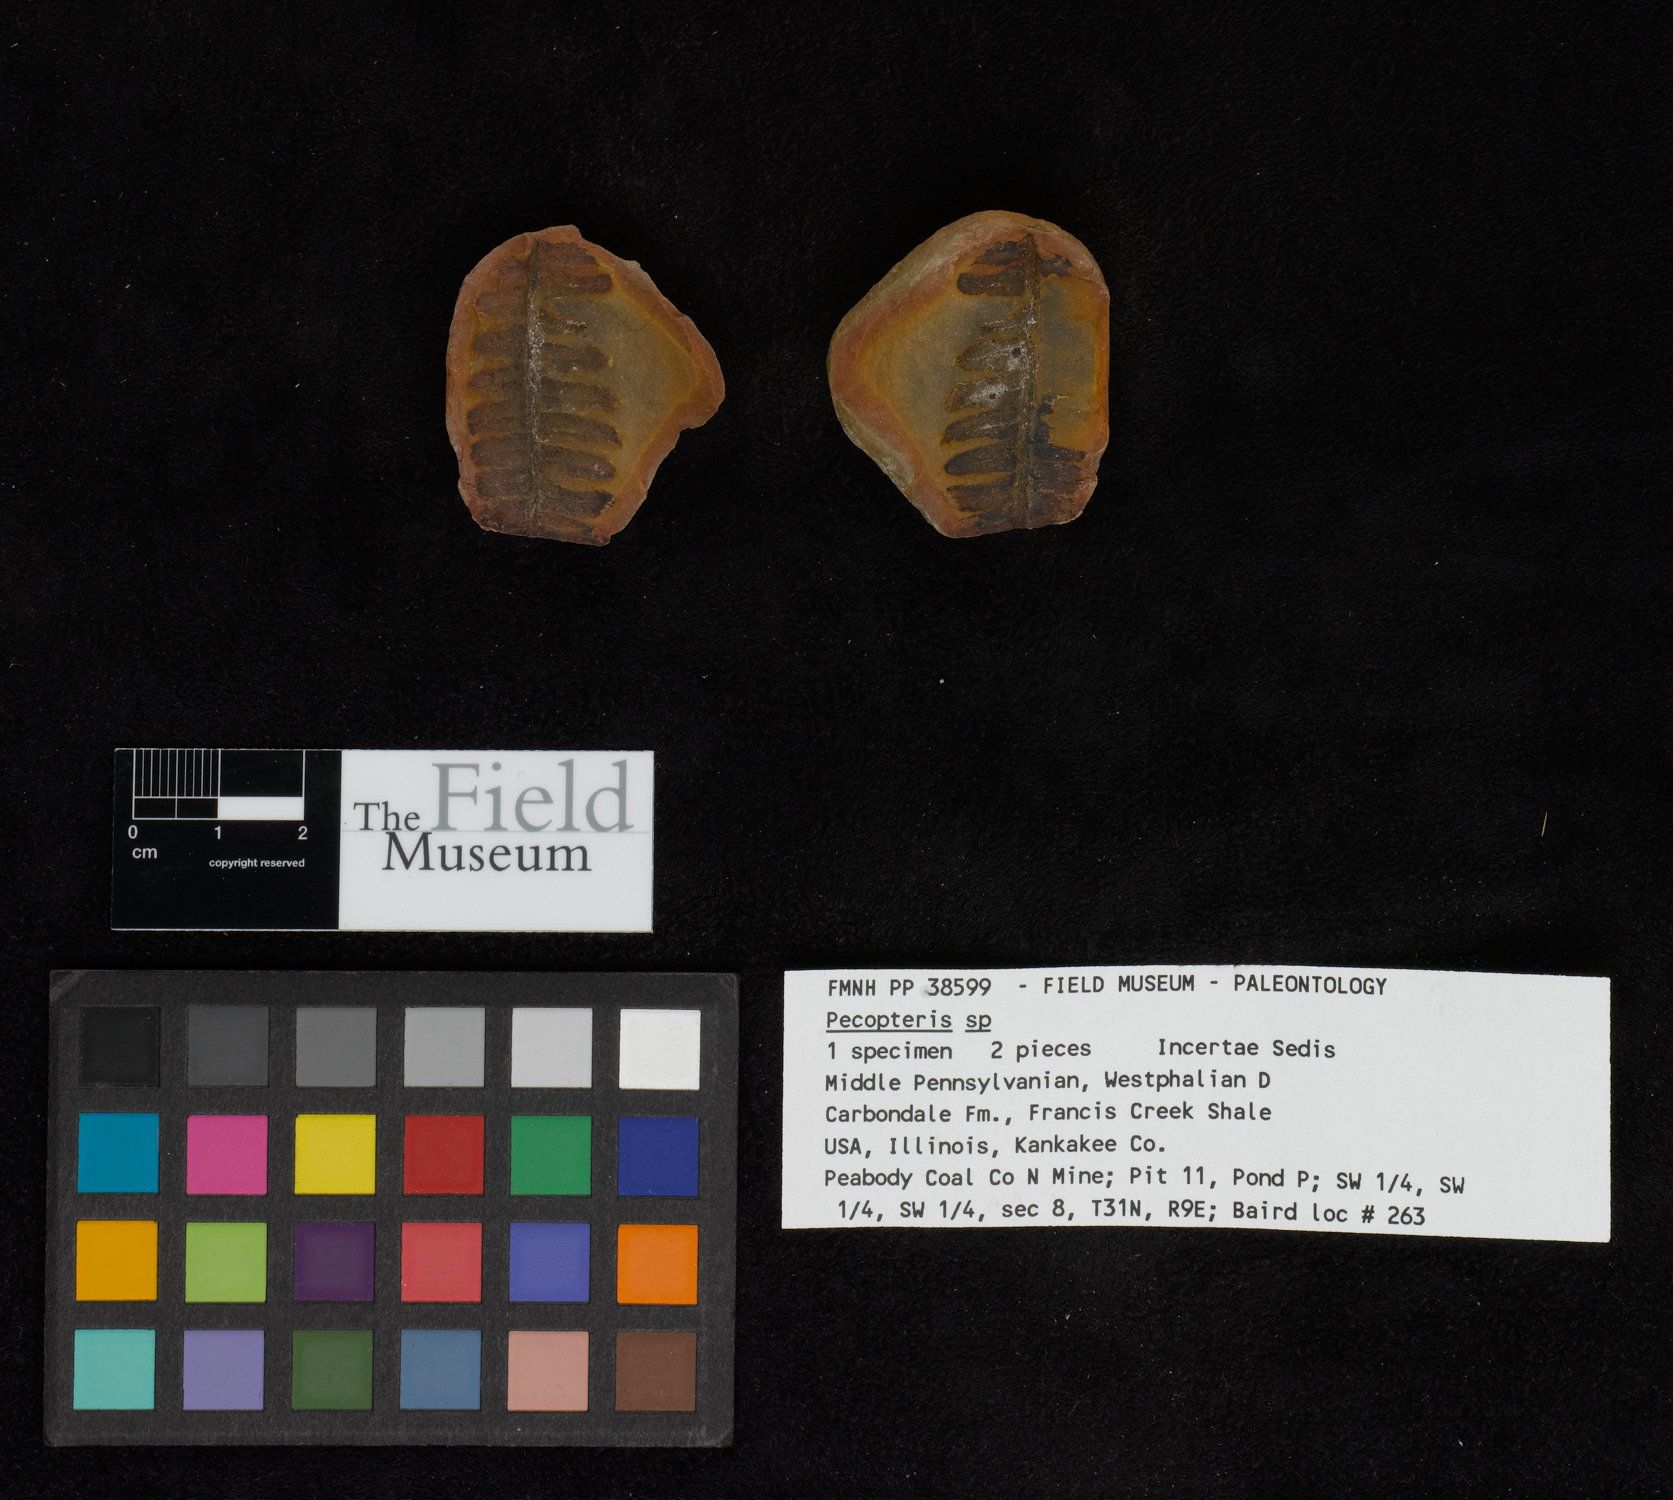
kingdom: Plantae
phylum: Tracheophyta
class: Polypodiopsida
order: Marattiales
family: Asterothecaceae
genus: Pecopteris
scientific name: Pecopteris
